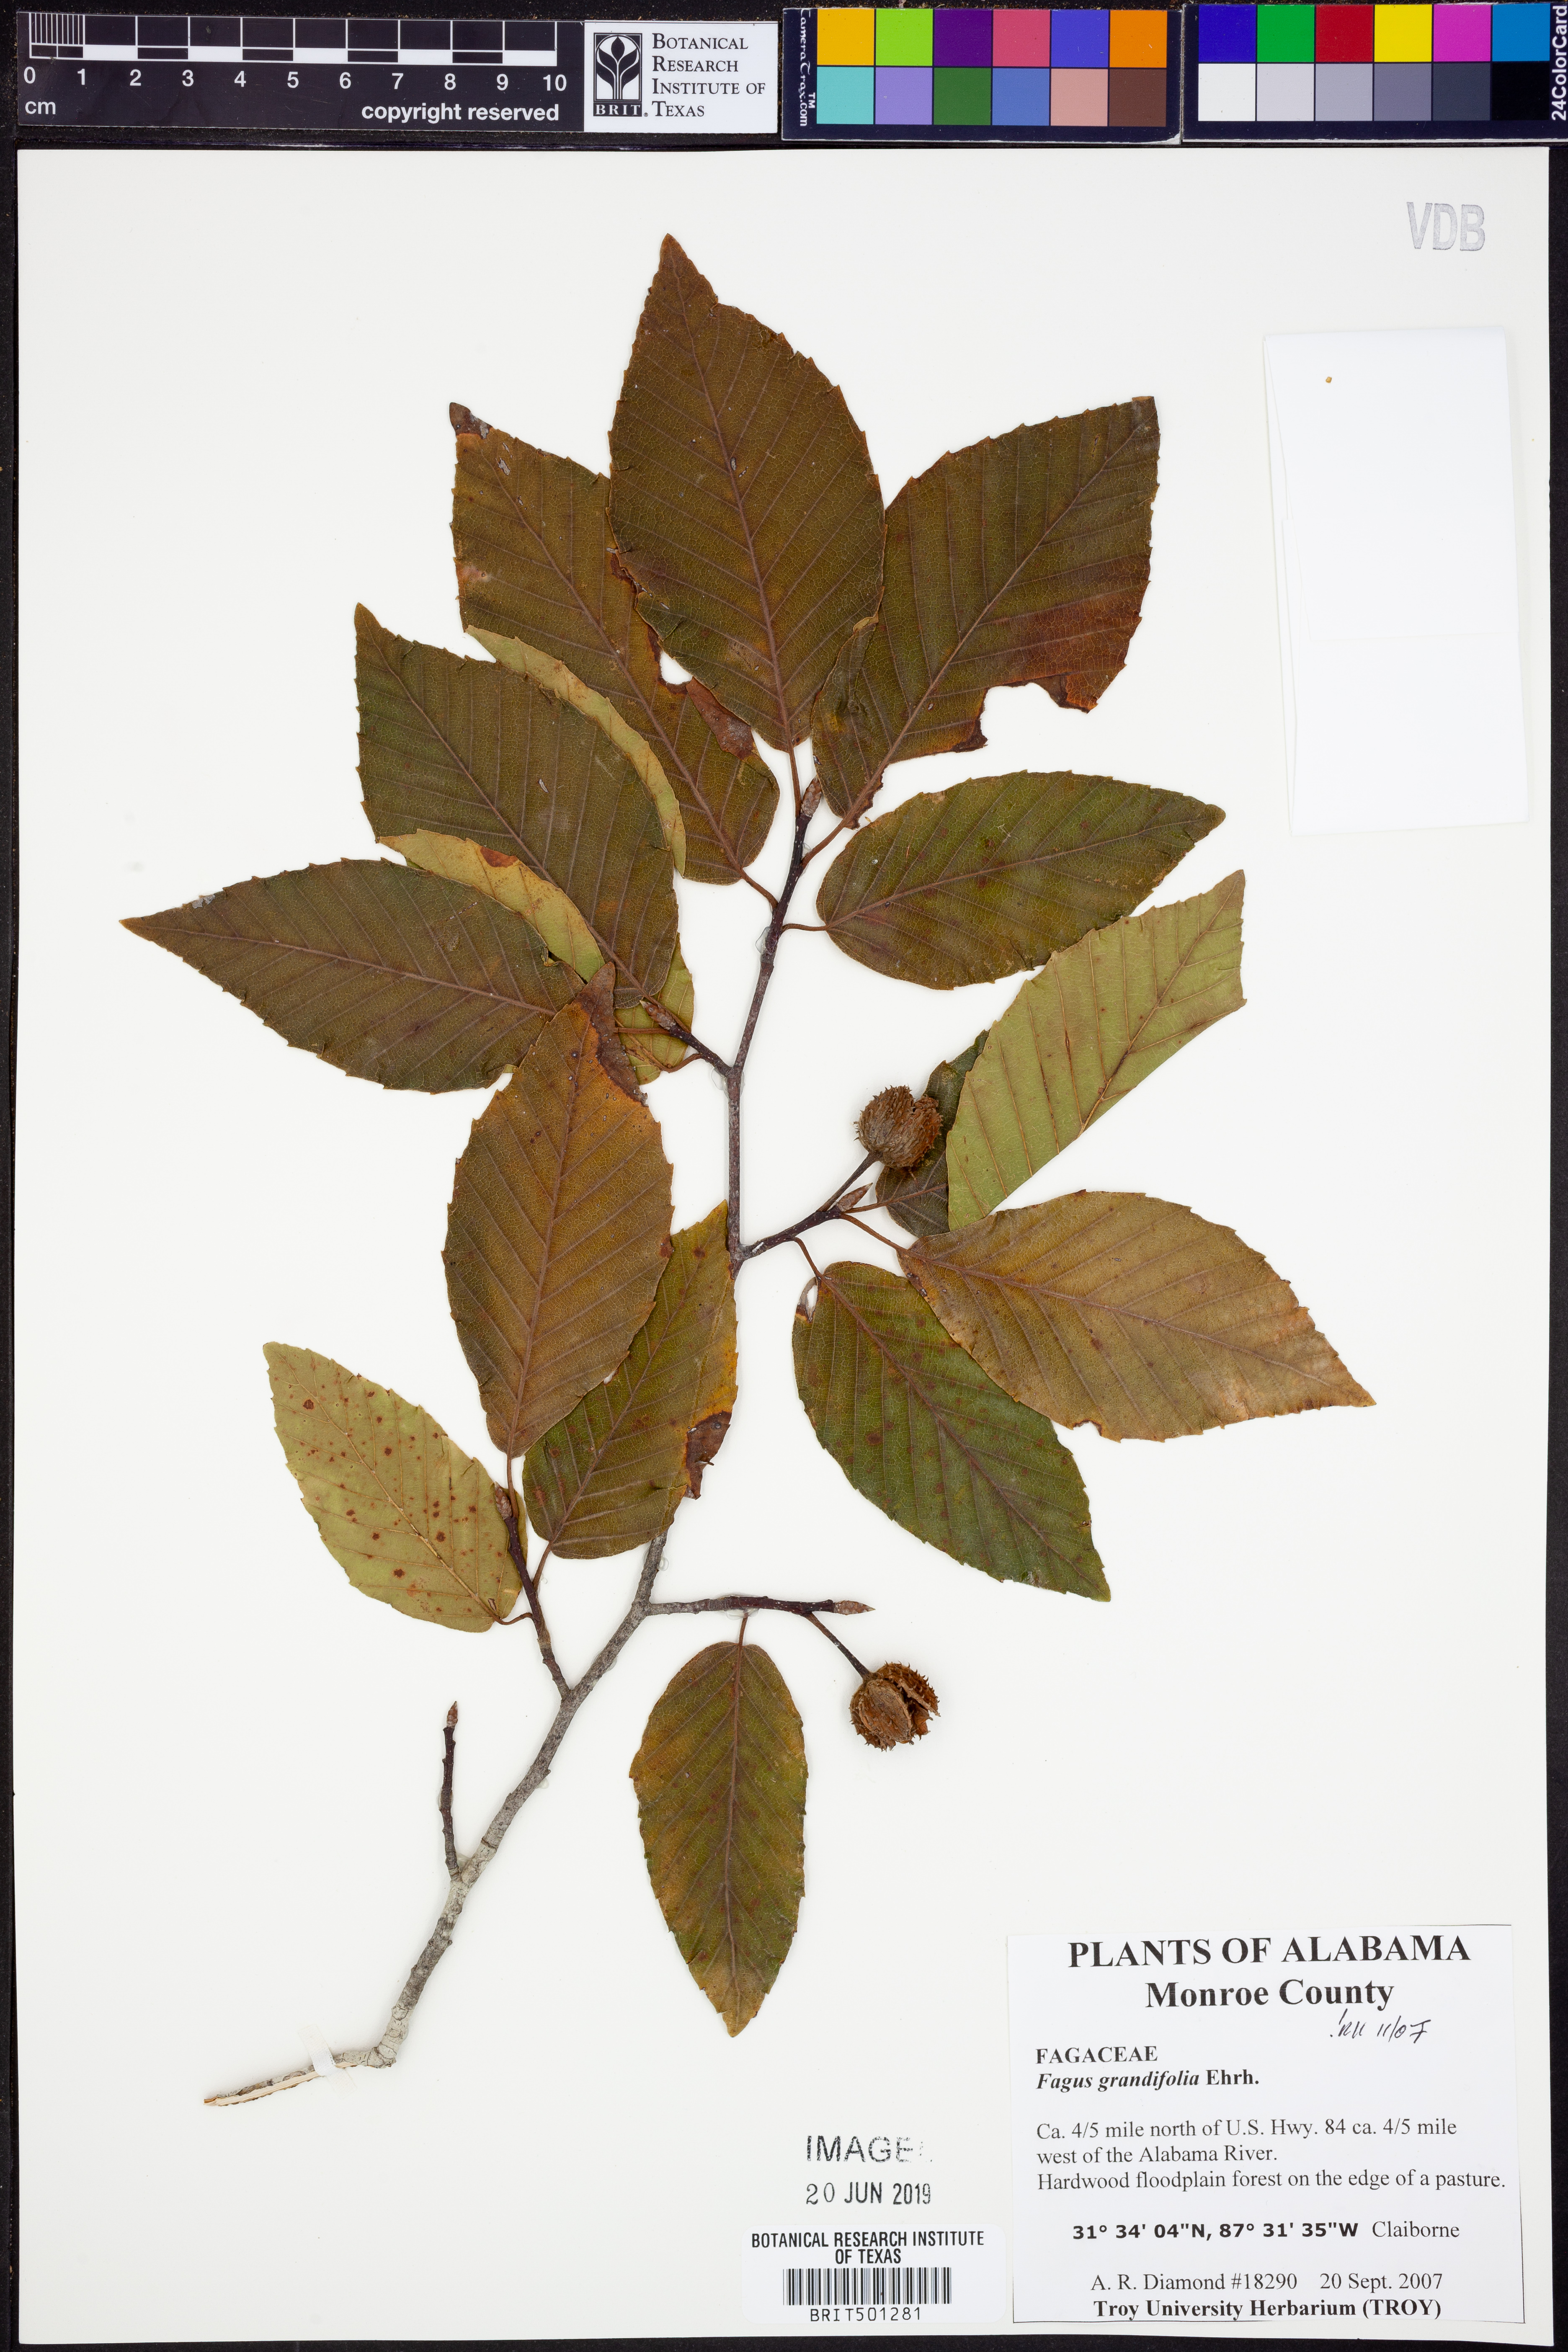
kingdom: Plantae
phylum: Tracheophyta
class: Magnoliopsida
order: Fagales
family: Fagaceae
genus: Fagus
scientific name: Fagus grandifolia
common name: American beech
